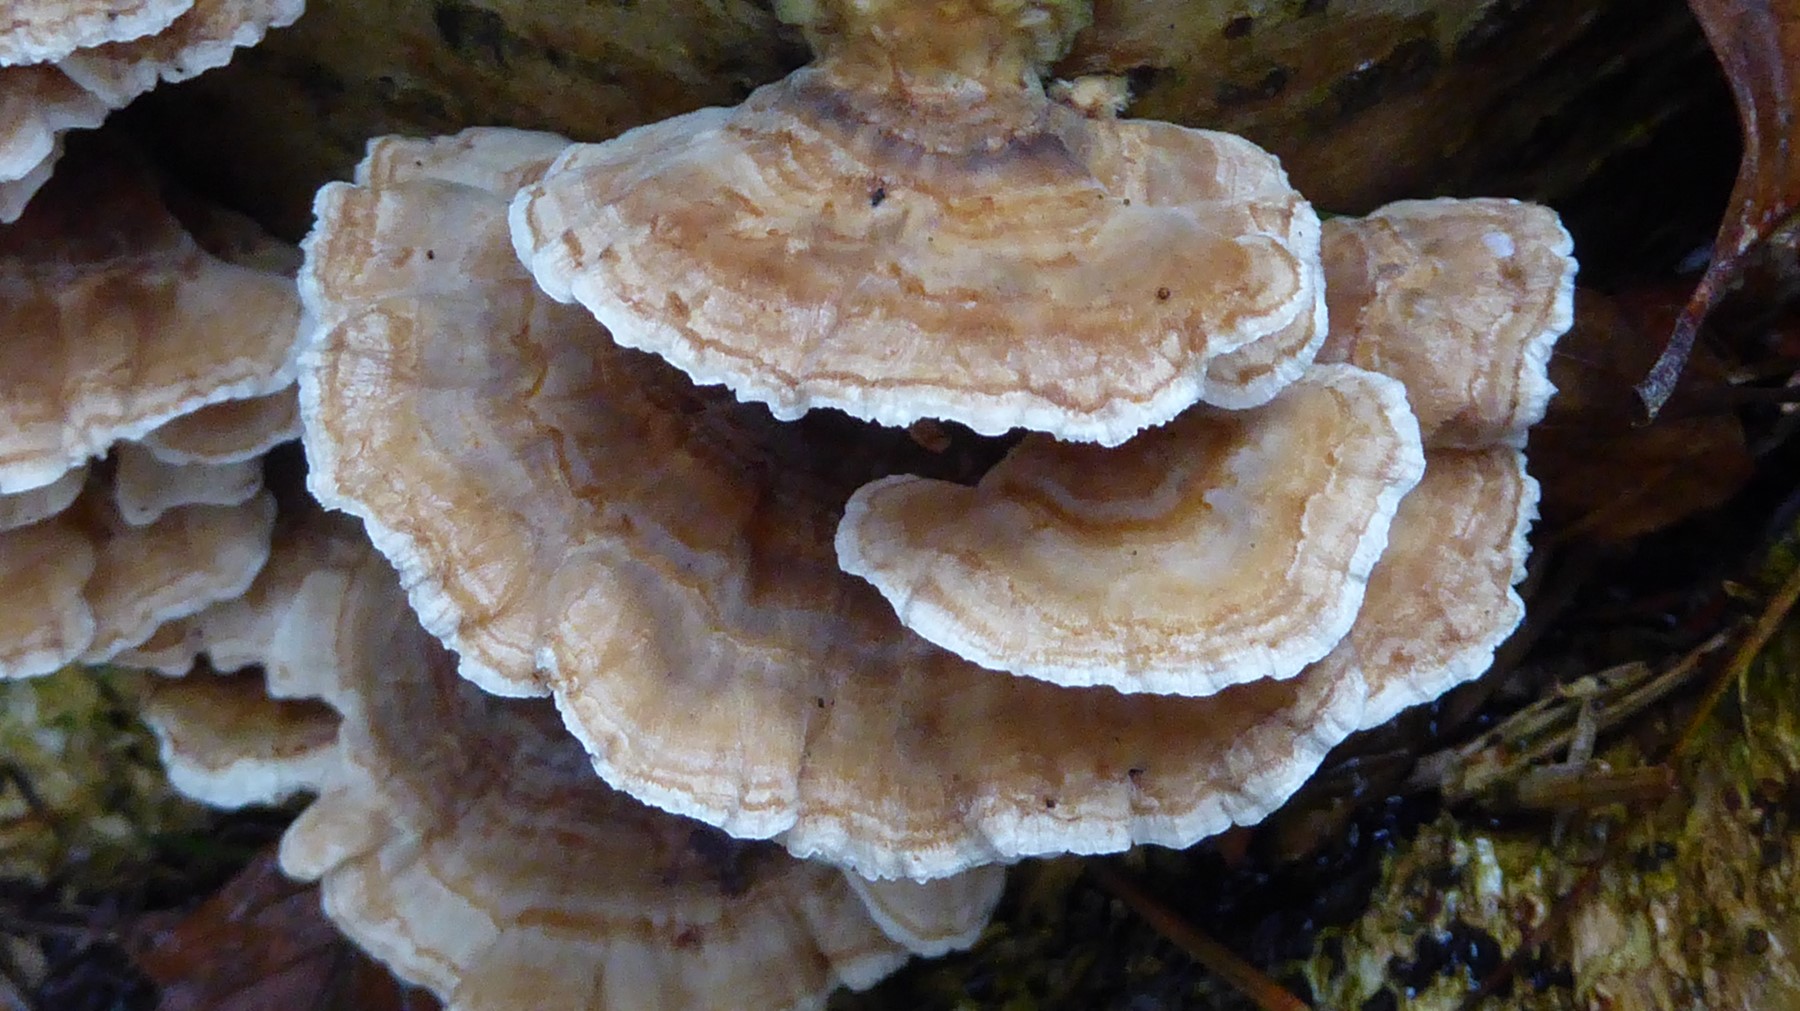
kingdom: Fungi
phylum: Basidiomycota
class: Agaricomycetes
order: Polyporales
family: Polyporaceae
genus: Trametes
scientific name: Trametes versicolor
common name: broget læderporesvamp
